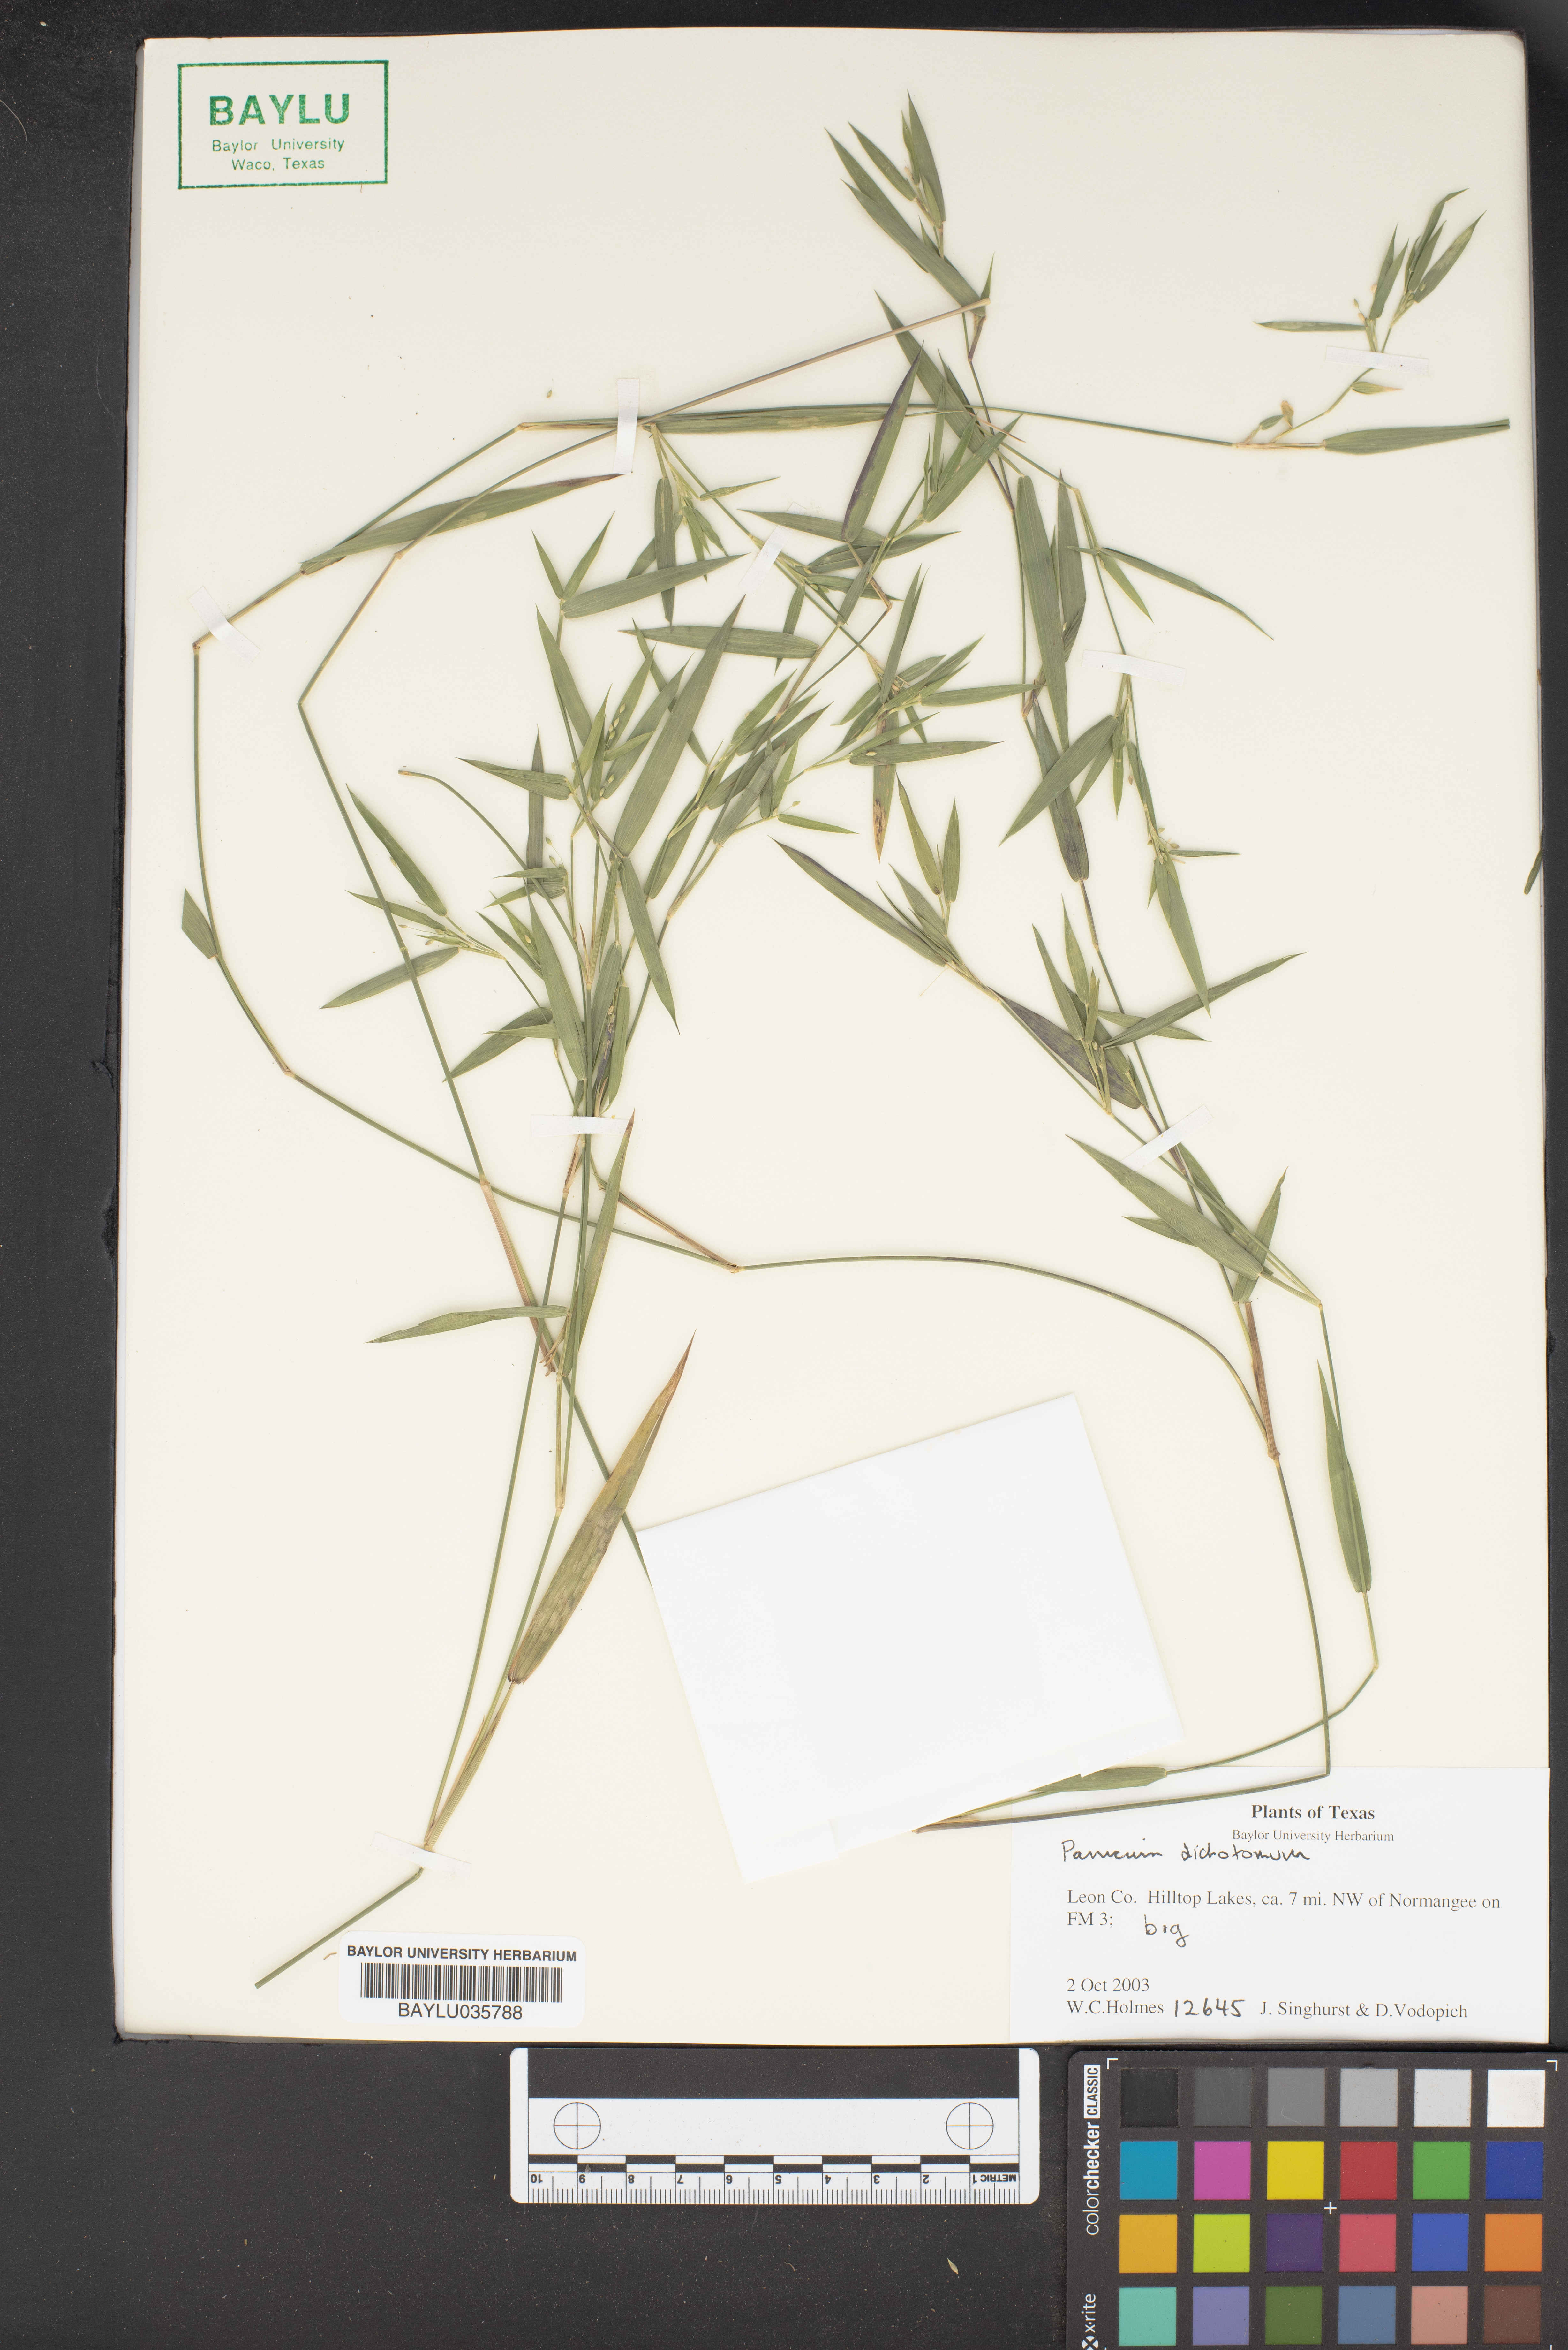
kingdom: Plantae
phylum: Tracheophyta
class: Liliopsida
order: Poales
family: Poaceae
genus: Dichanthelium
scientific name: Dichanthelium dichotomum
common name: Cypress panicgrass
